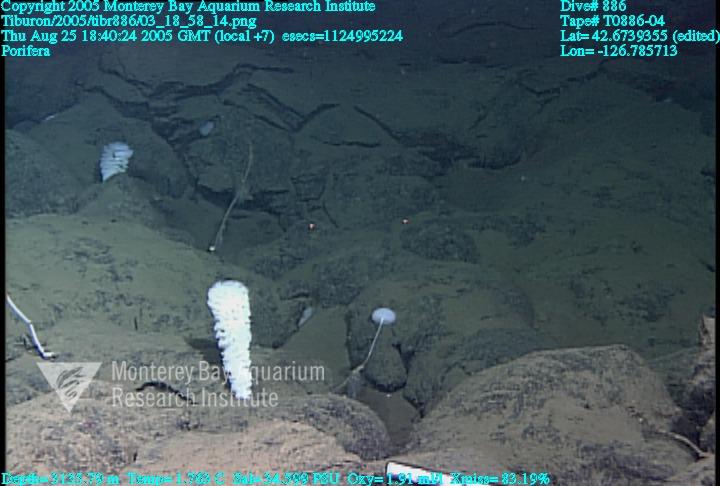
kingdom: Animalia
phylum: Porifera
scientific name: Porifera
